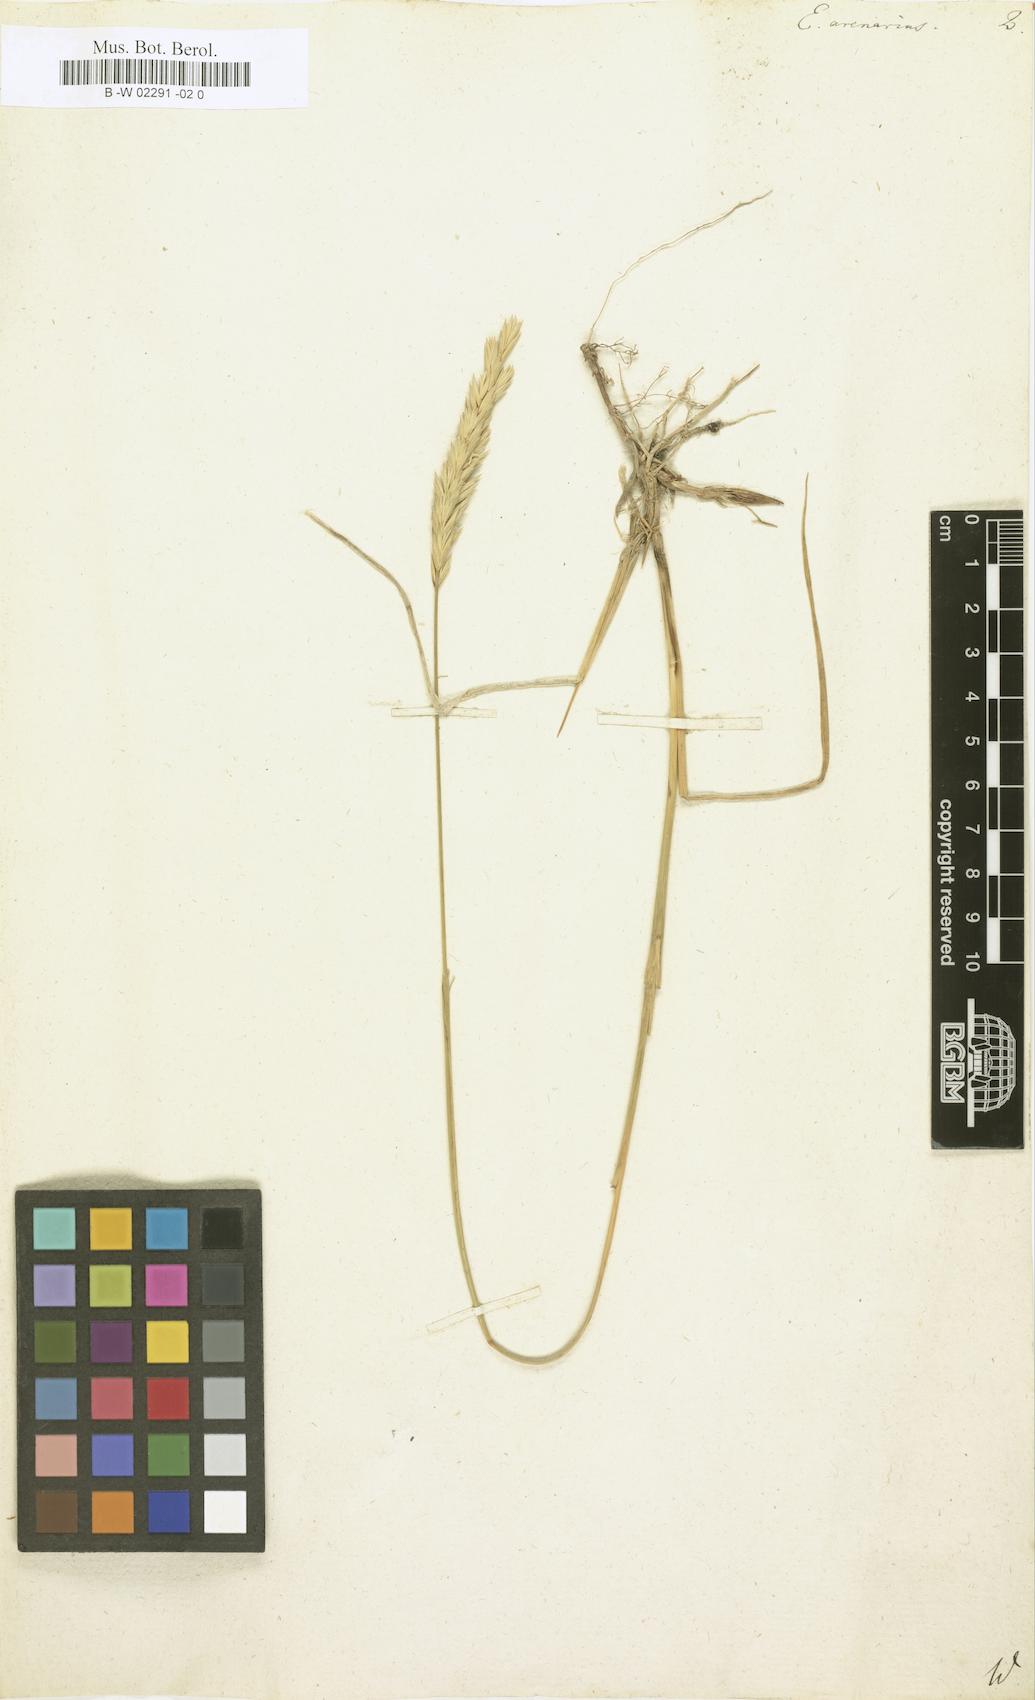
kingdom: Plantae
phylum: Tracheophyta
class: Liliopsida
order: Poales
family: Poaceae
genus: Elymus
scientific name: Elymus arenarius
